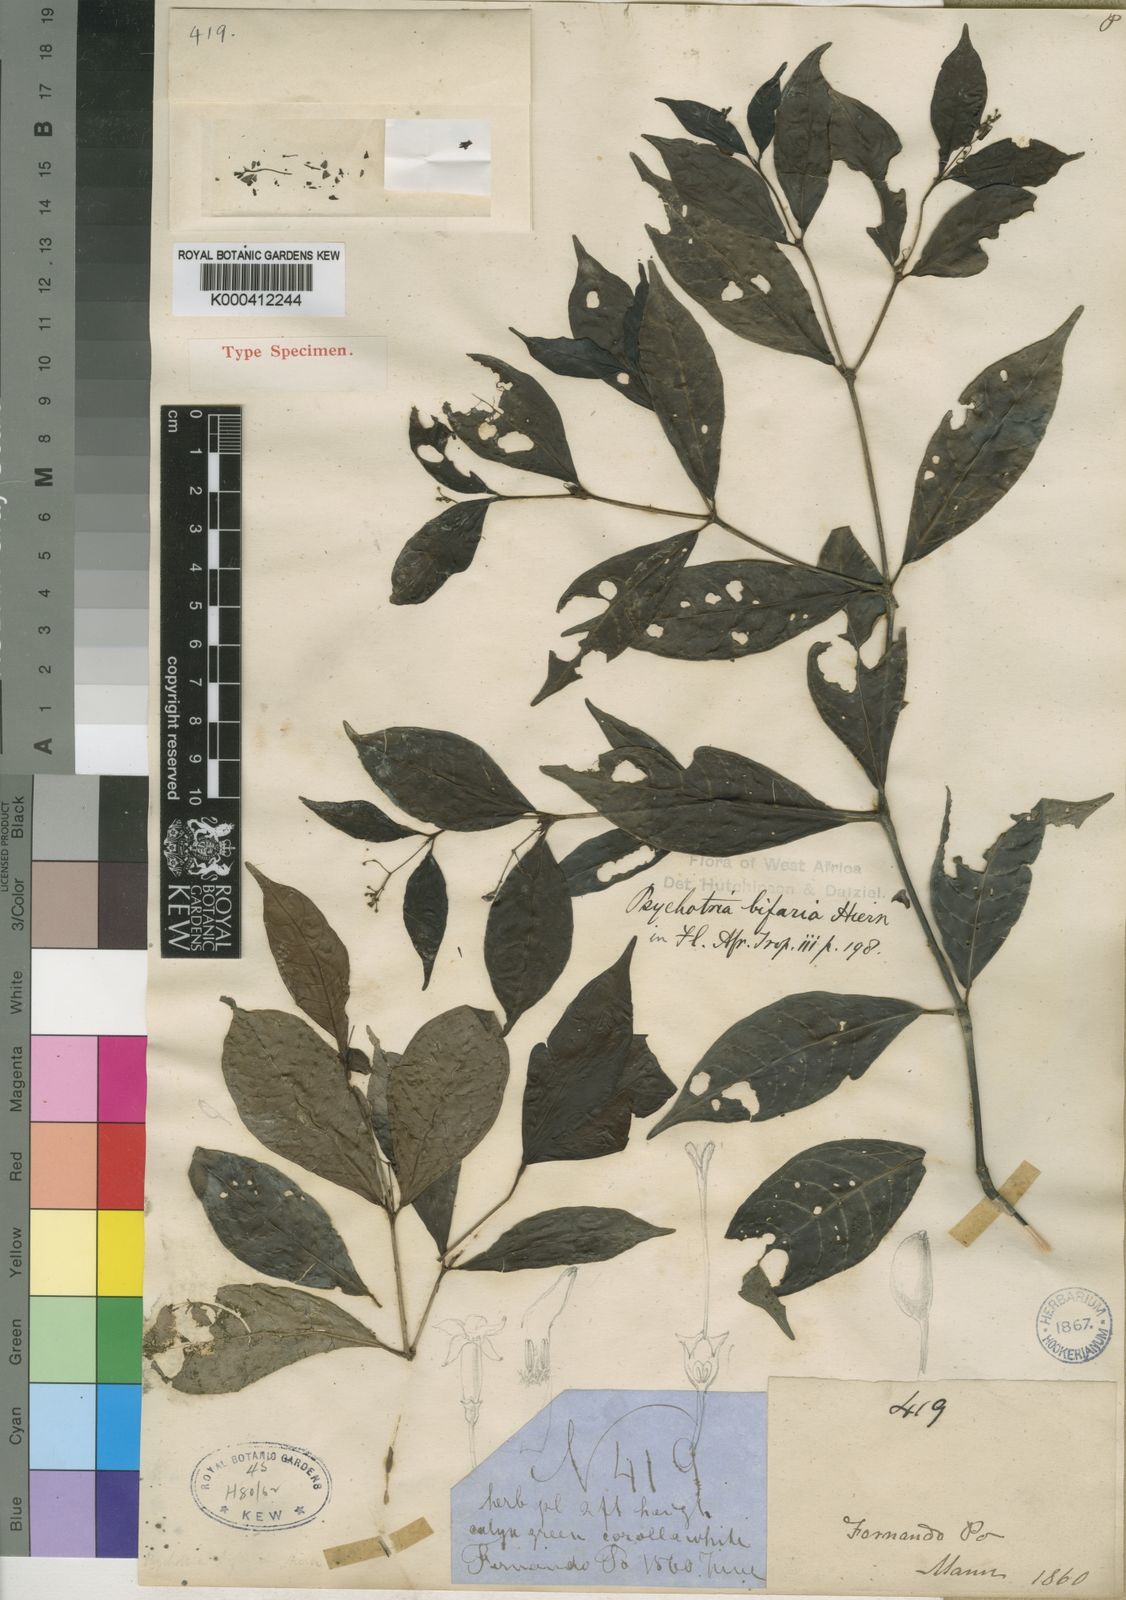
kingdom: Plantae
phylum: Tracheophyta
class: Magnoliopsida
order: Gentianales
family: Rubiaceae
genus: Psychotria
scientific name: Psychotria bifaria
